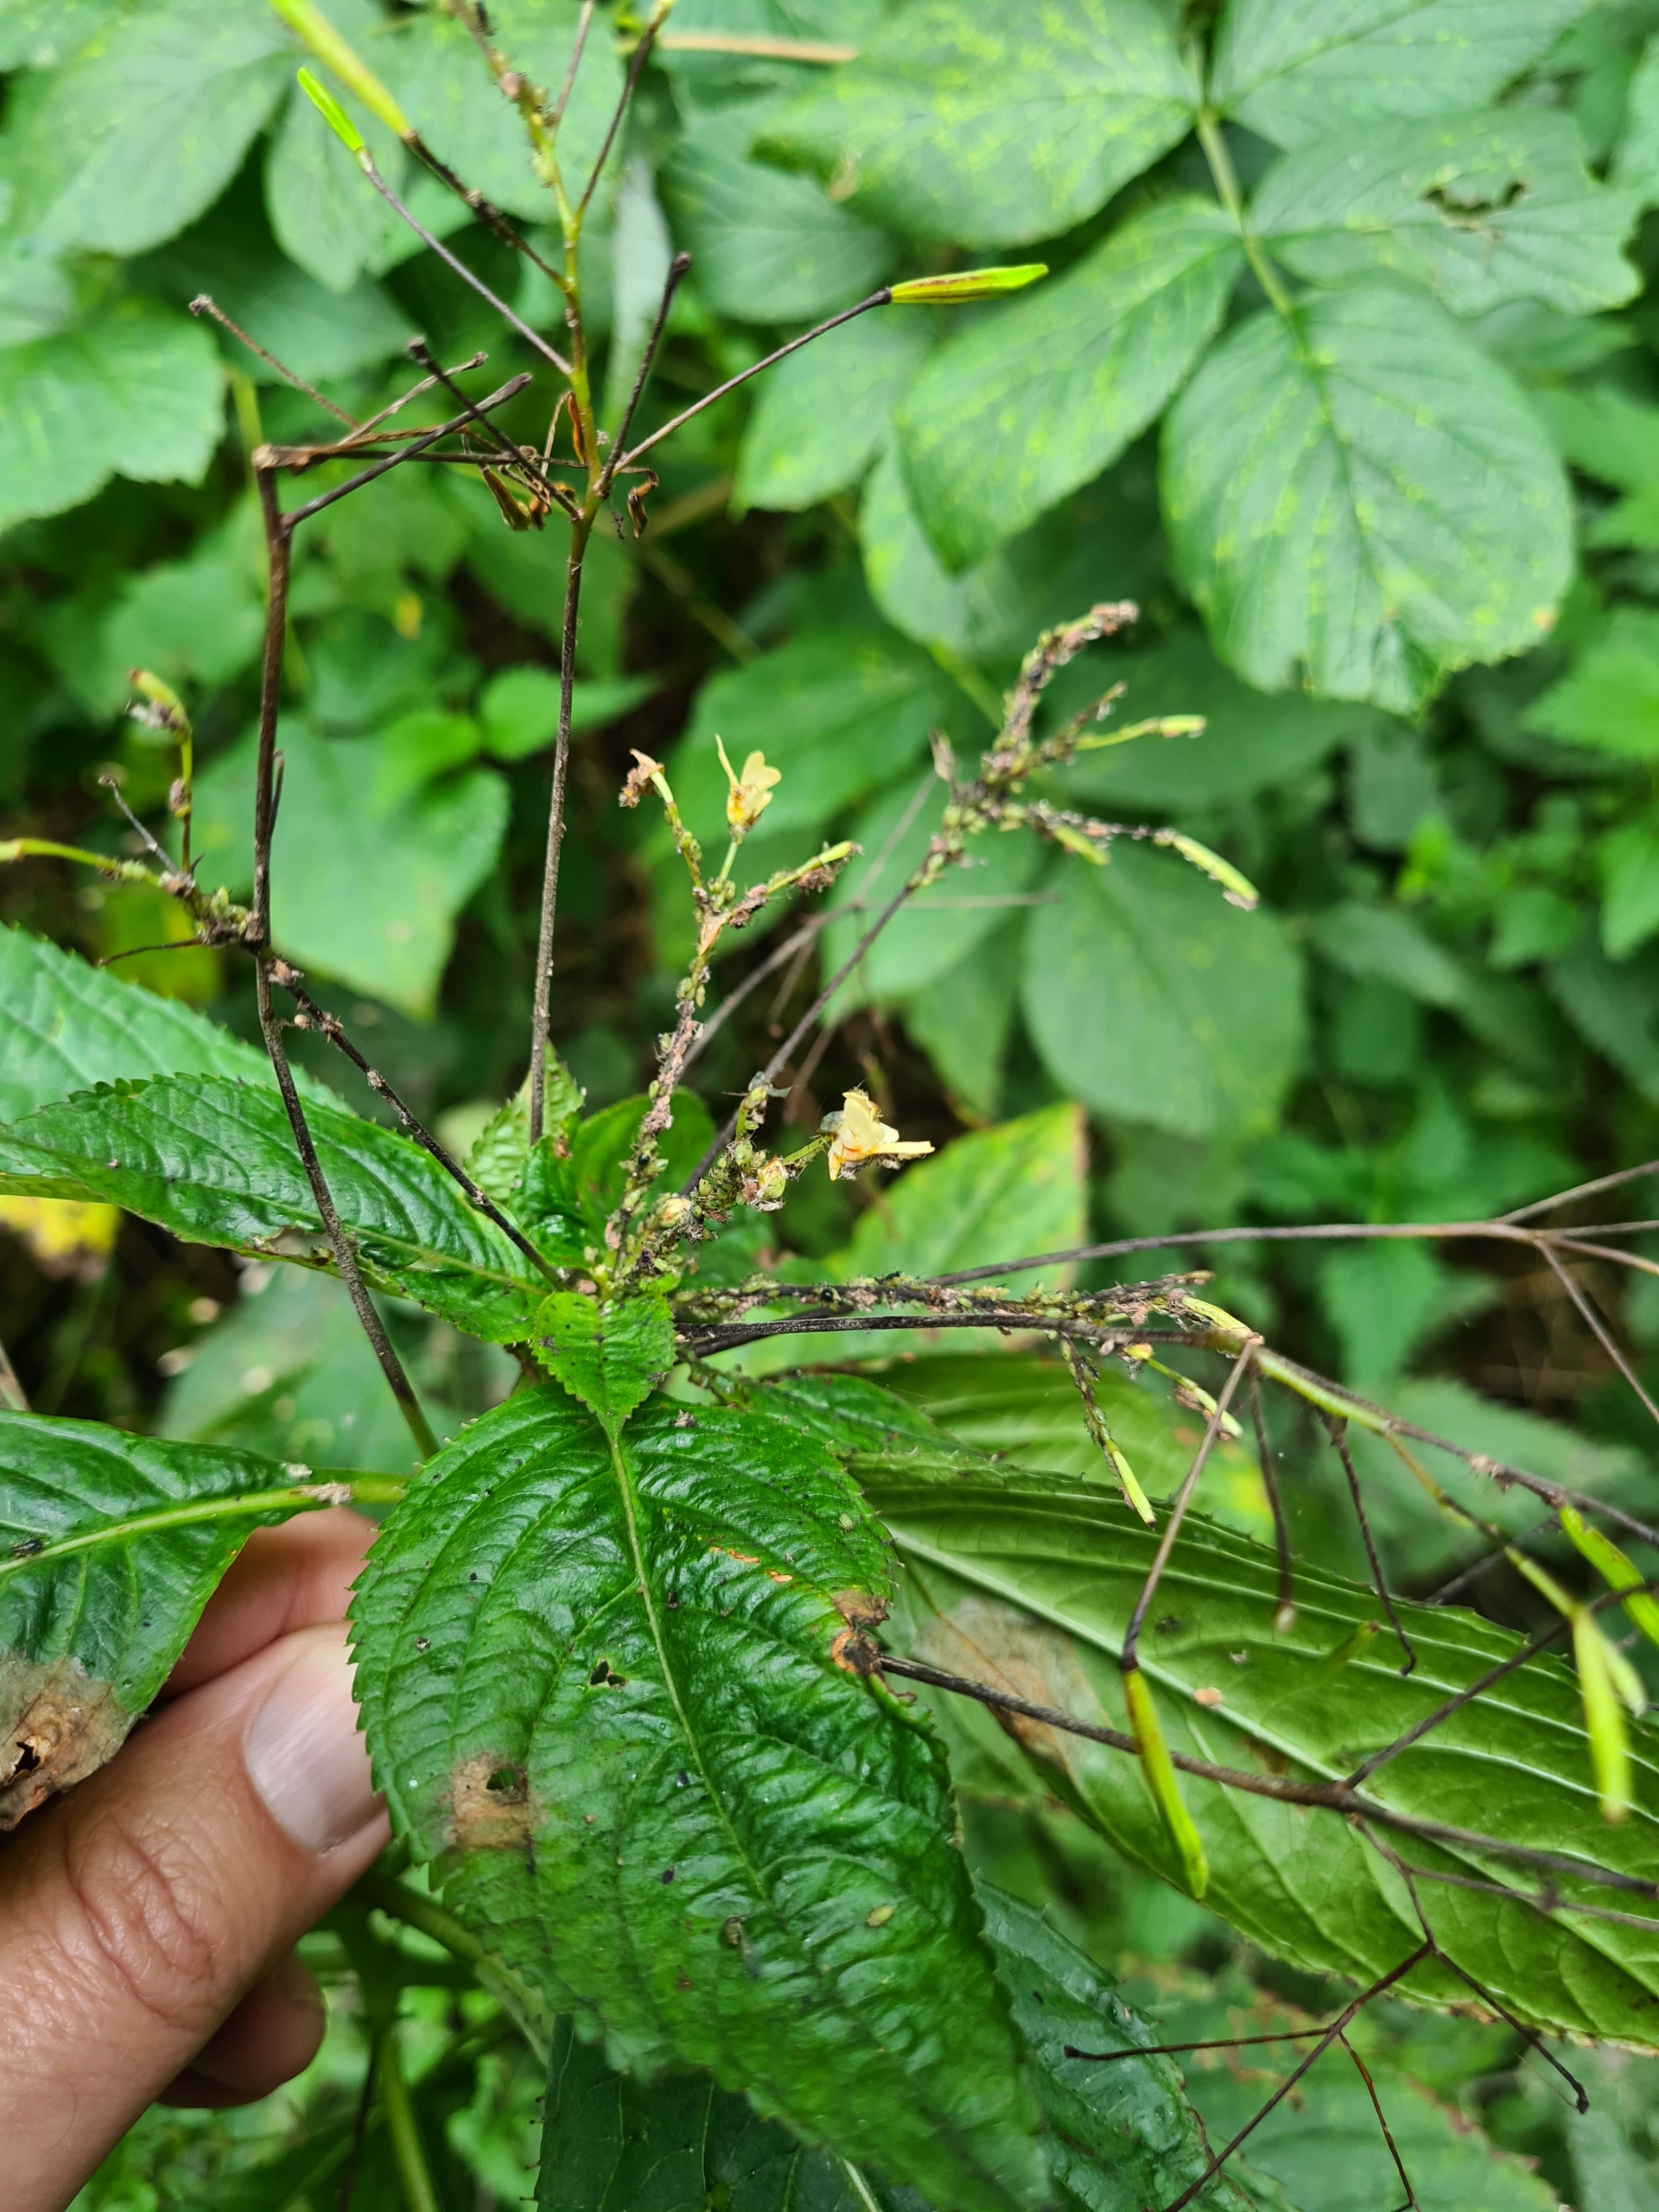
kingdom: Animalia
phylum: Arthropoda
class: Insecta
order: Hemiptera
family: Aphididae
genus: Impatientinum
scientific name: Impatientinum asiaticum
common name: Asiatisk balsaminbladlus
